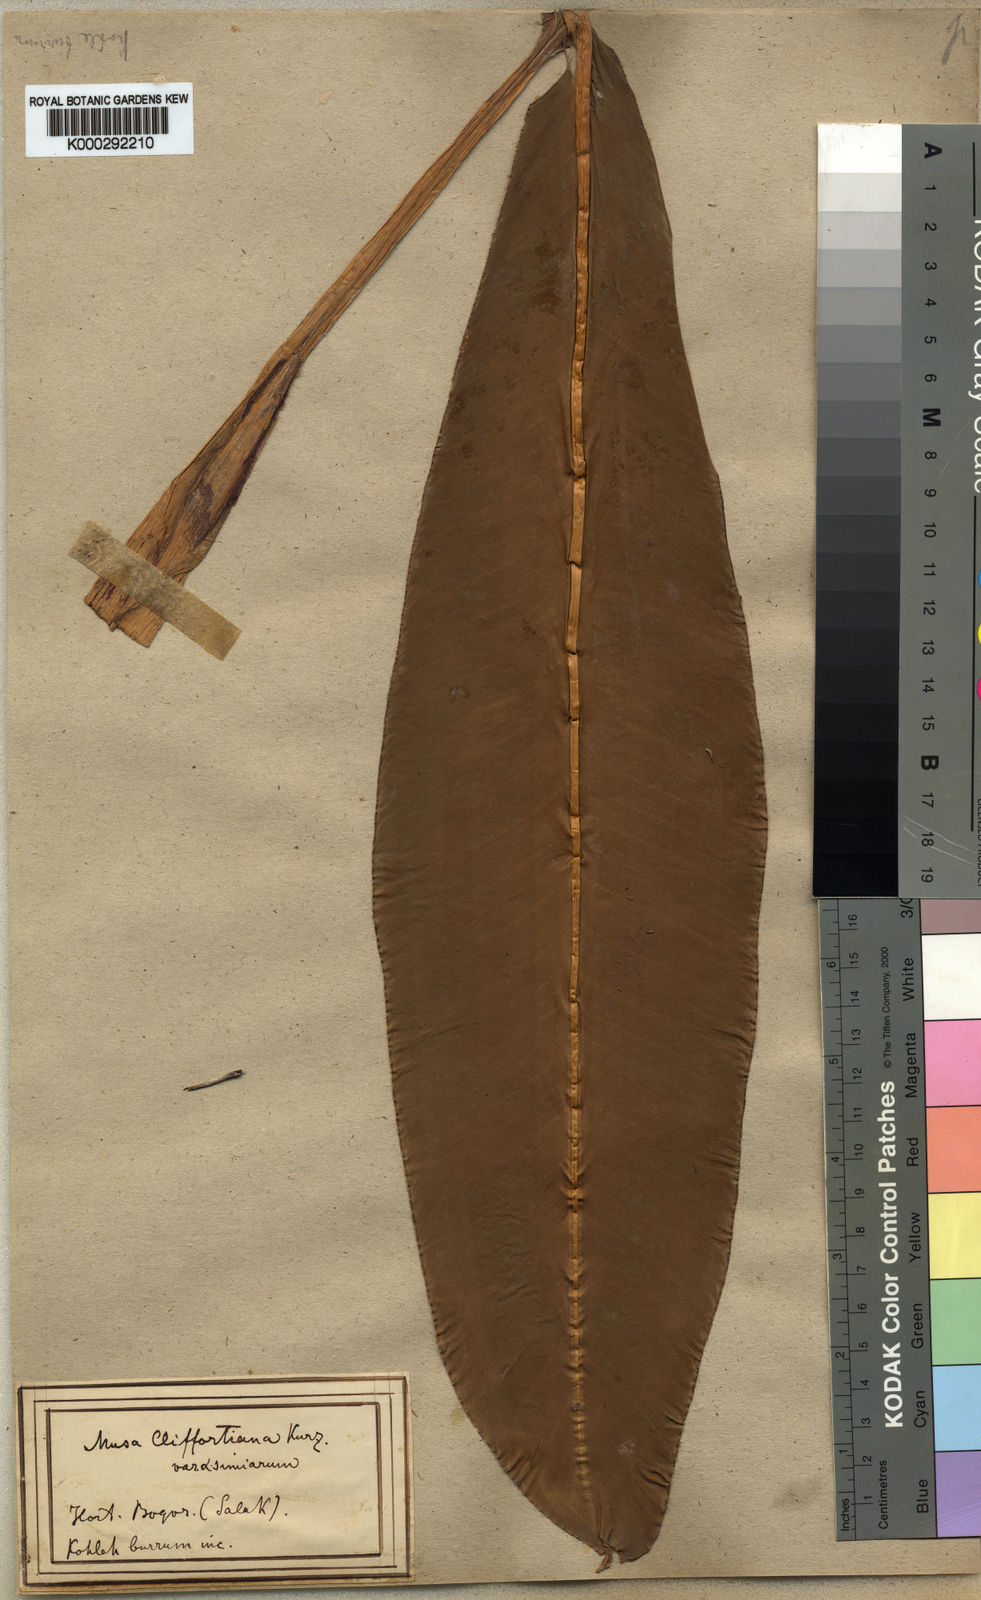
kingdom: Plantae
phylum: Tracheophyta
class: Liliopsida
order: Zingiberales
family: Musaceae
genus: Musa
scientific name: Musa acuminata
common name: Edible banana
